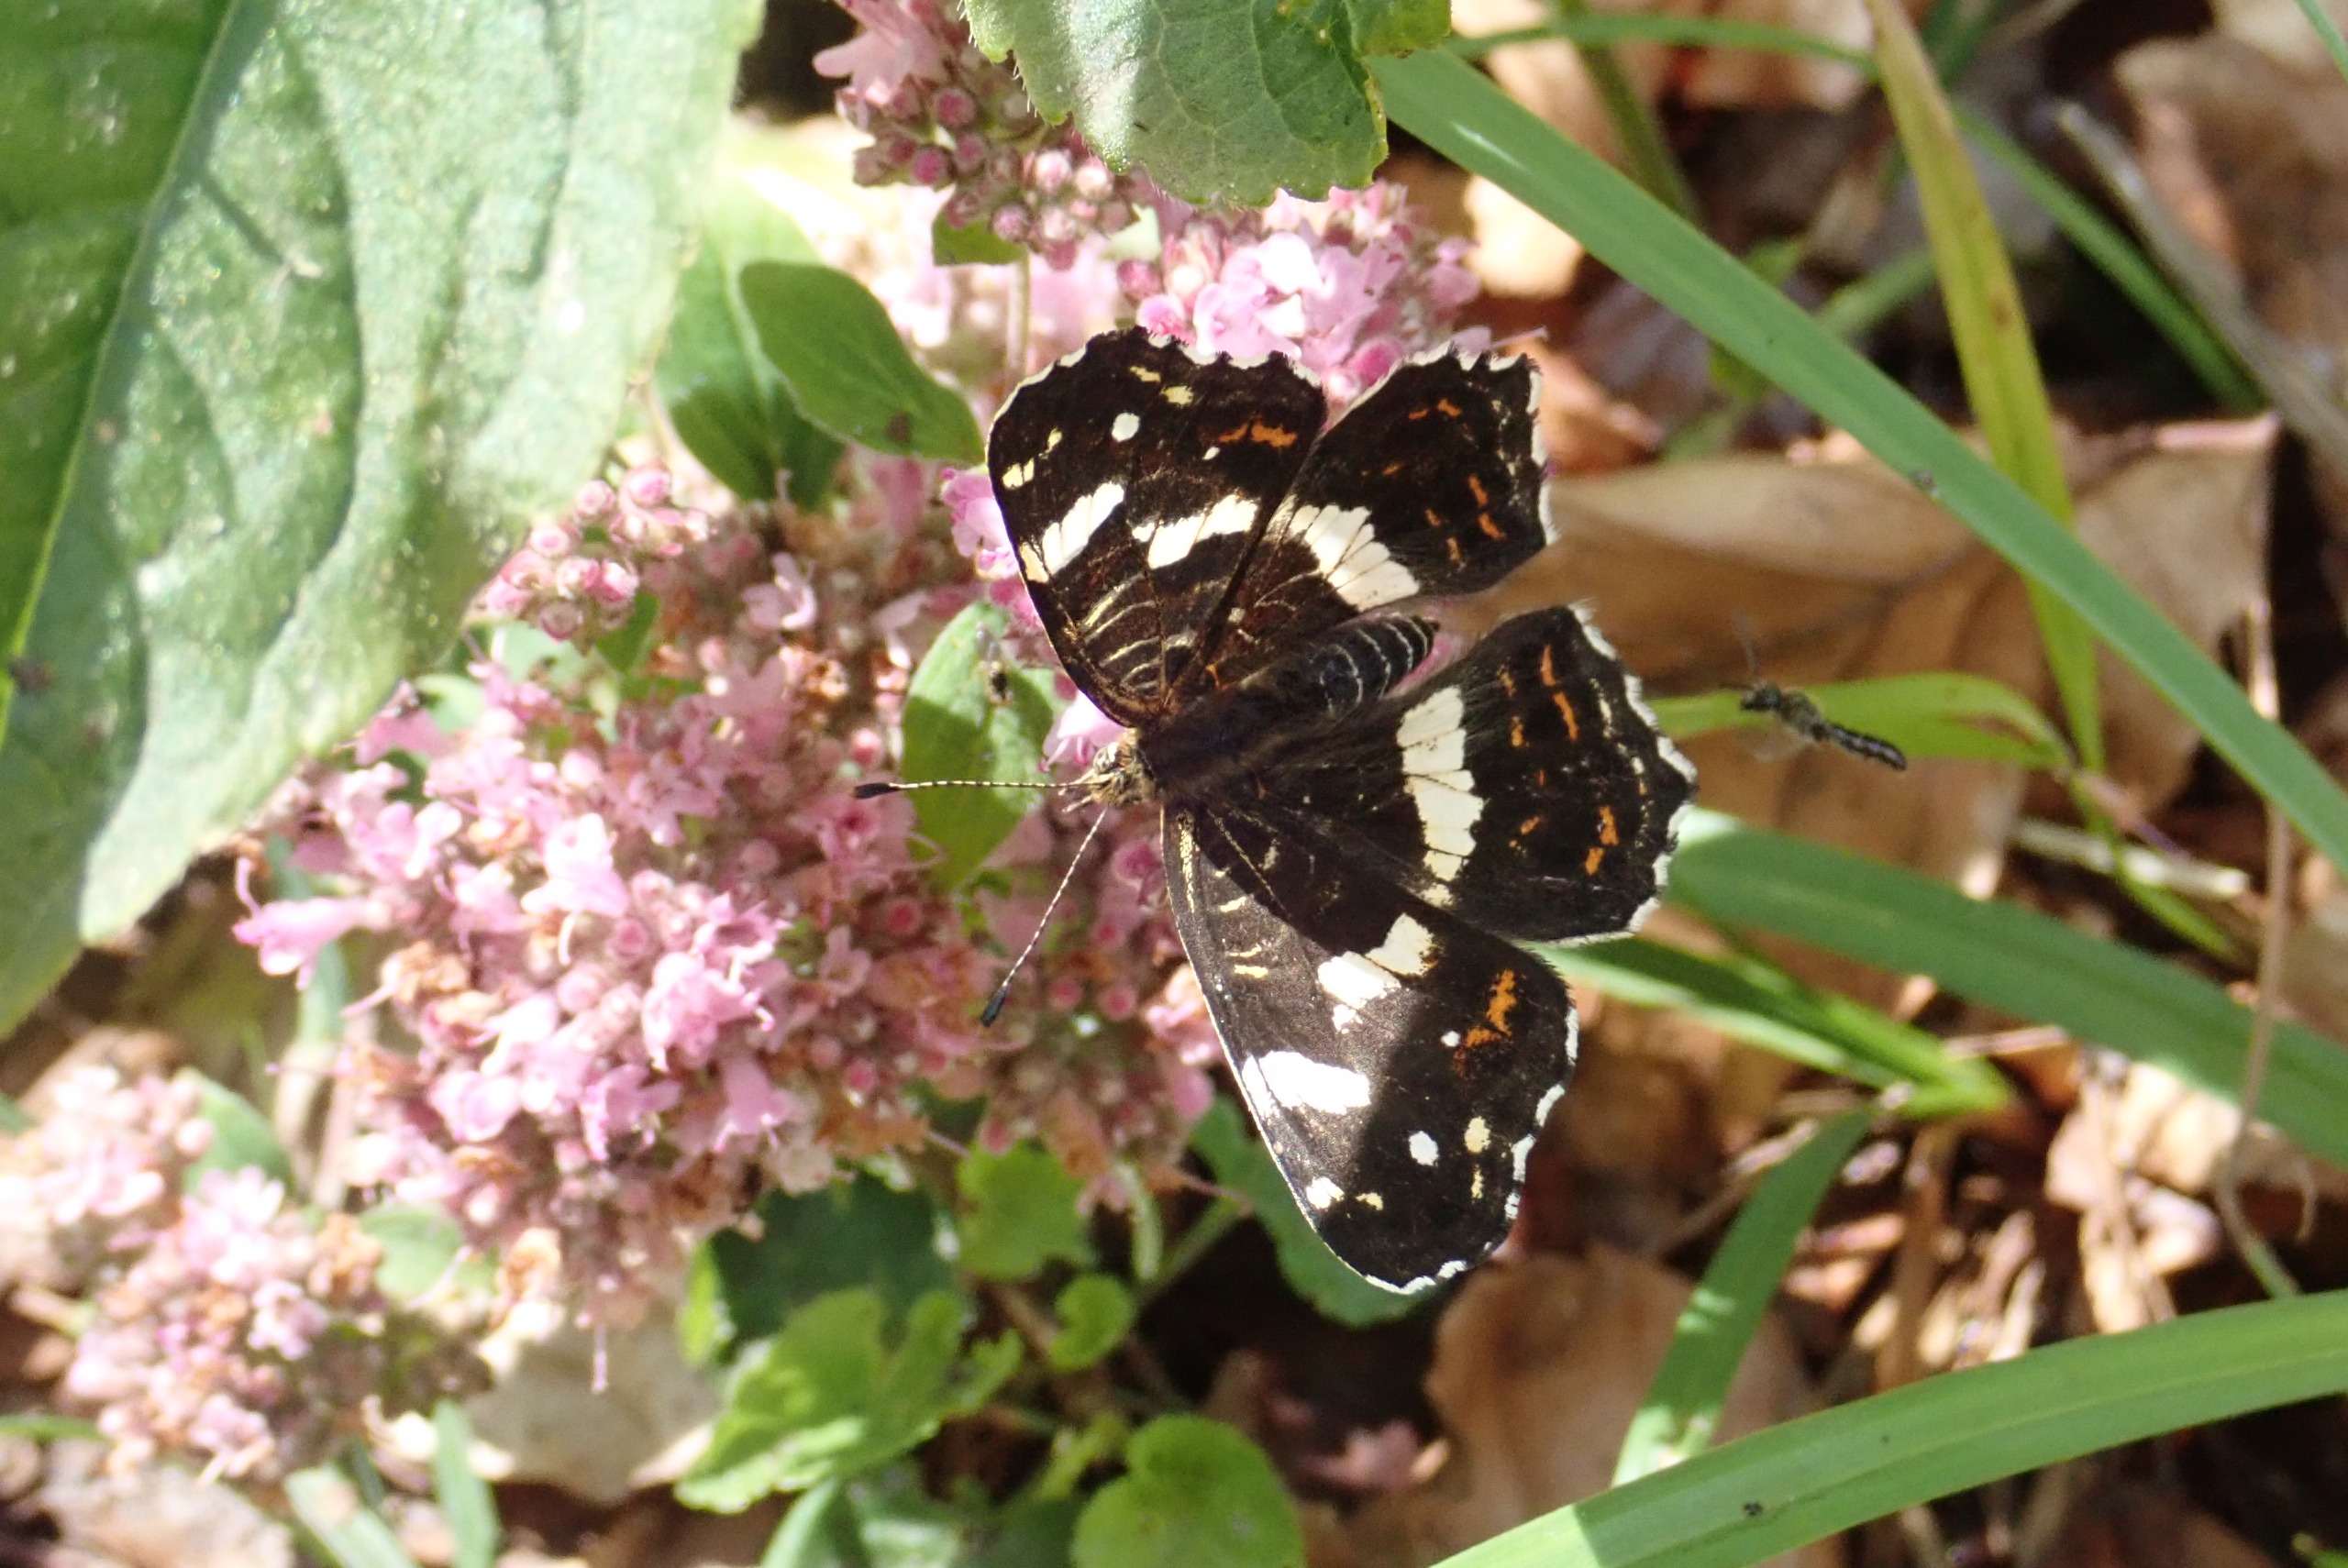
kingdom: Animalia
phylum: Arthropoda
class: Insecta
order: Lepidoptera
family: Nymphalidae
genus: Araschnia
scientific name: Araschnia levana
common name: Nældesommerfugl
